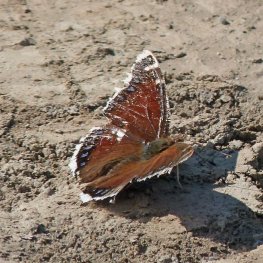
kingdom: Animalia
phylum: Arthropoda
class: Insecta
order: Lepidoptera
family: Nymphalidae
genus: Nymphalis
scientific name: Nymphalis antiopa
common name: Mourning Cloak
